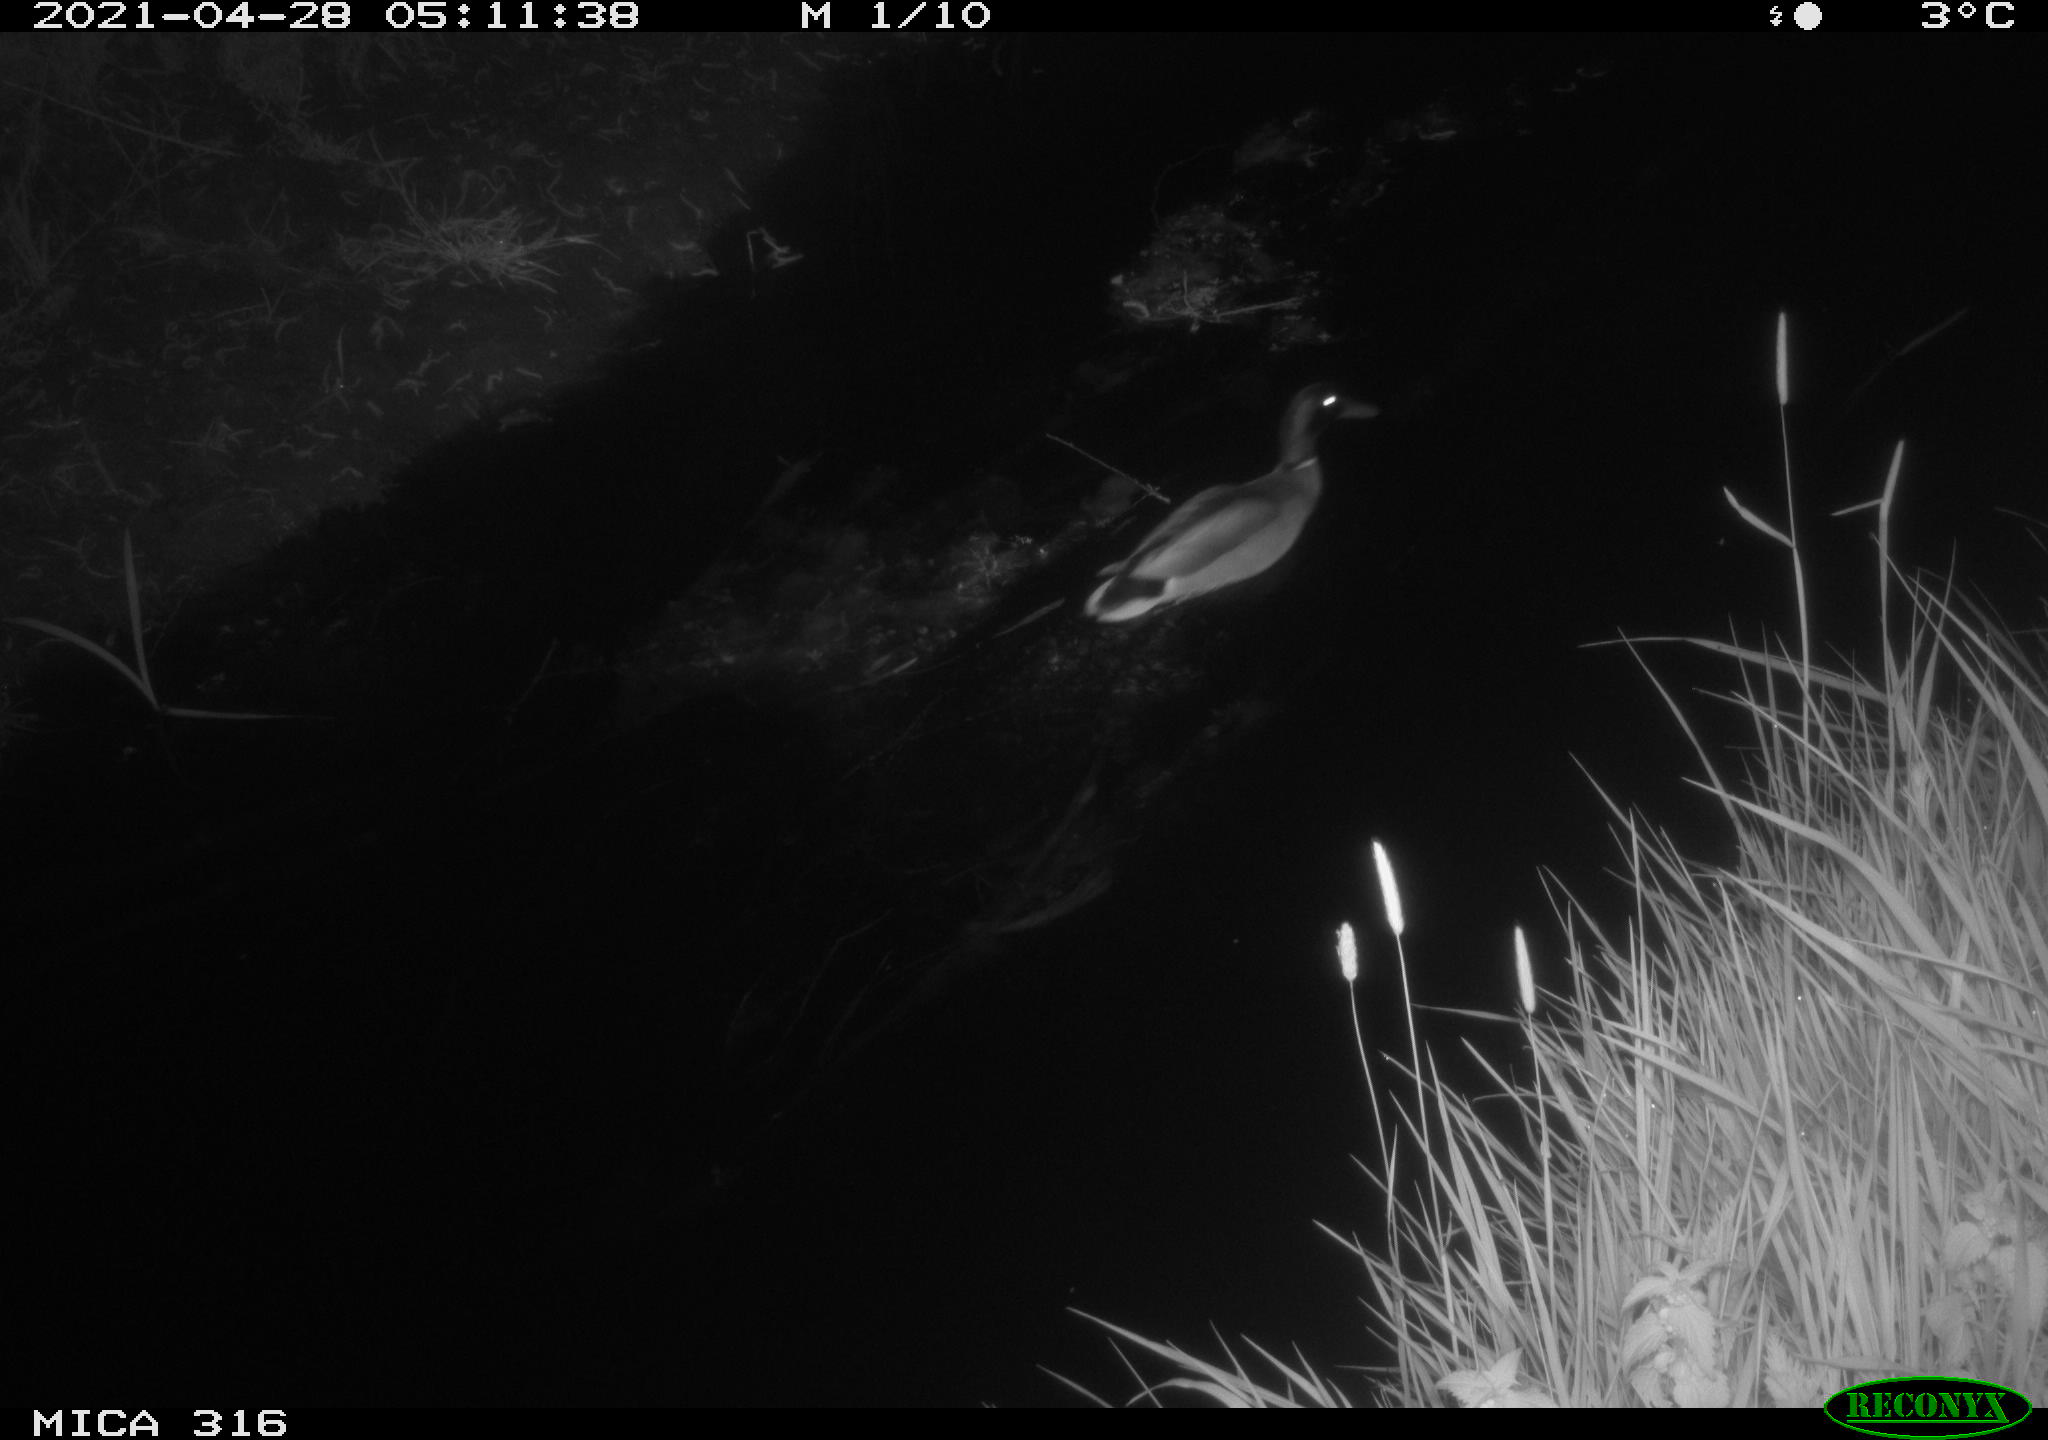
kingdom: Animalia
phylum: Chordata
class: Aves
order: Anseriformes
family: Anatidae
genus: Anas
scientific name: Anas platyrhynchos
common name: Mallard
